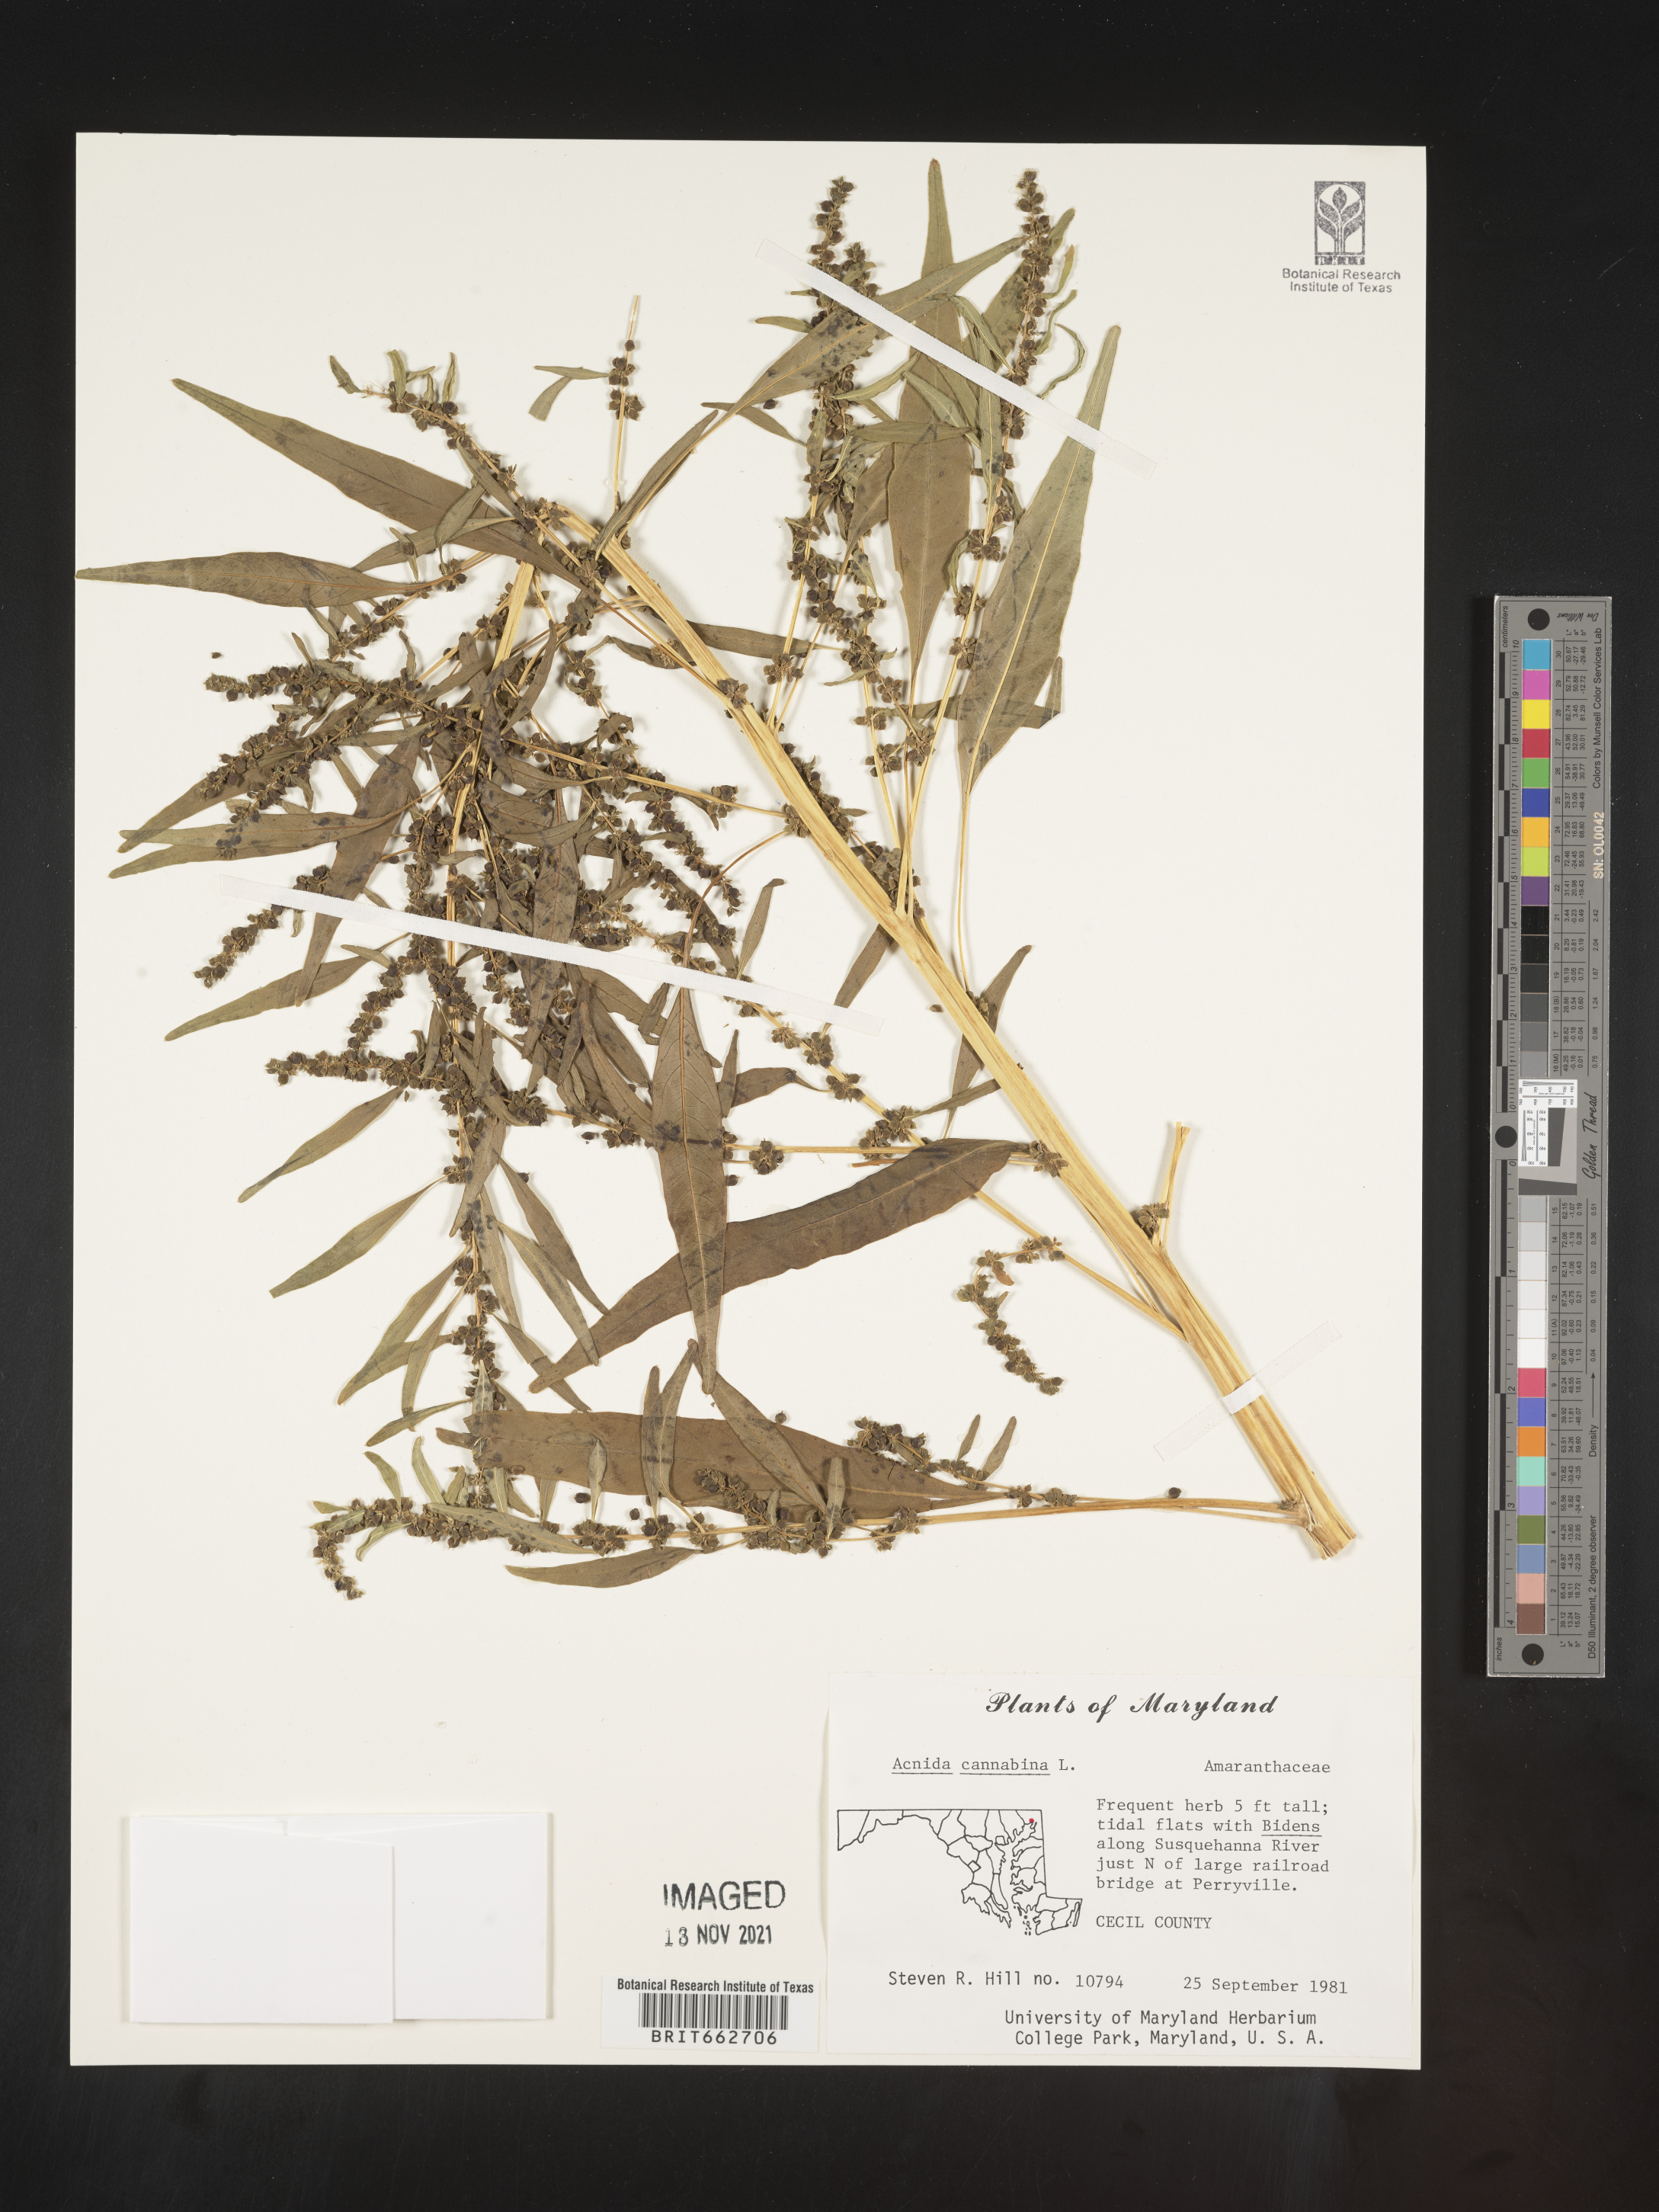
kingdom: Plantae
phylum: Tracheophyta
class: Magnoliopsida
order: Caryophyllales
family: Amaranthaceae
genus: Amaranthus
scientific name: Amaranthus Acnida spec
